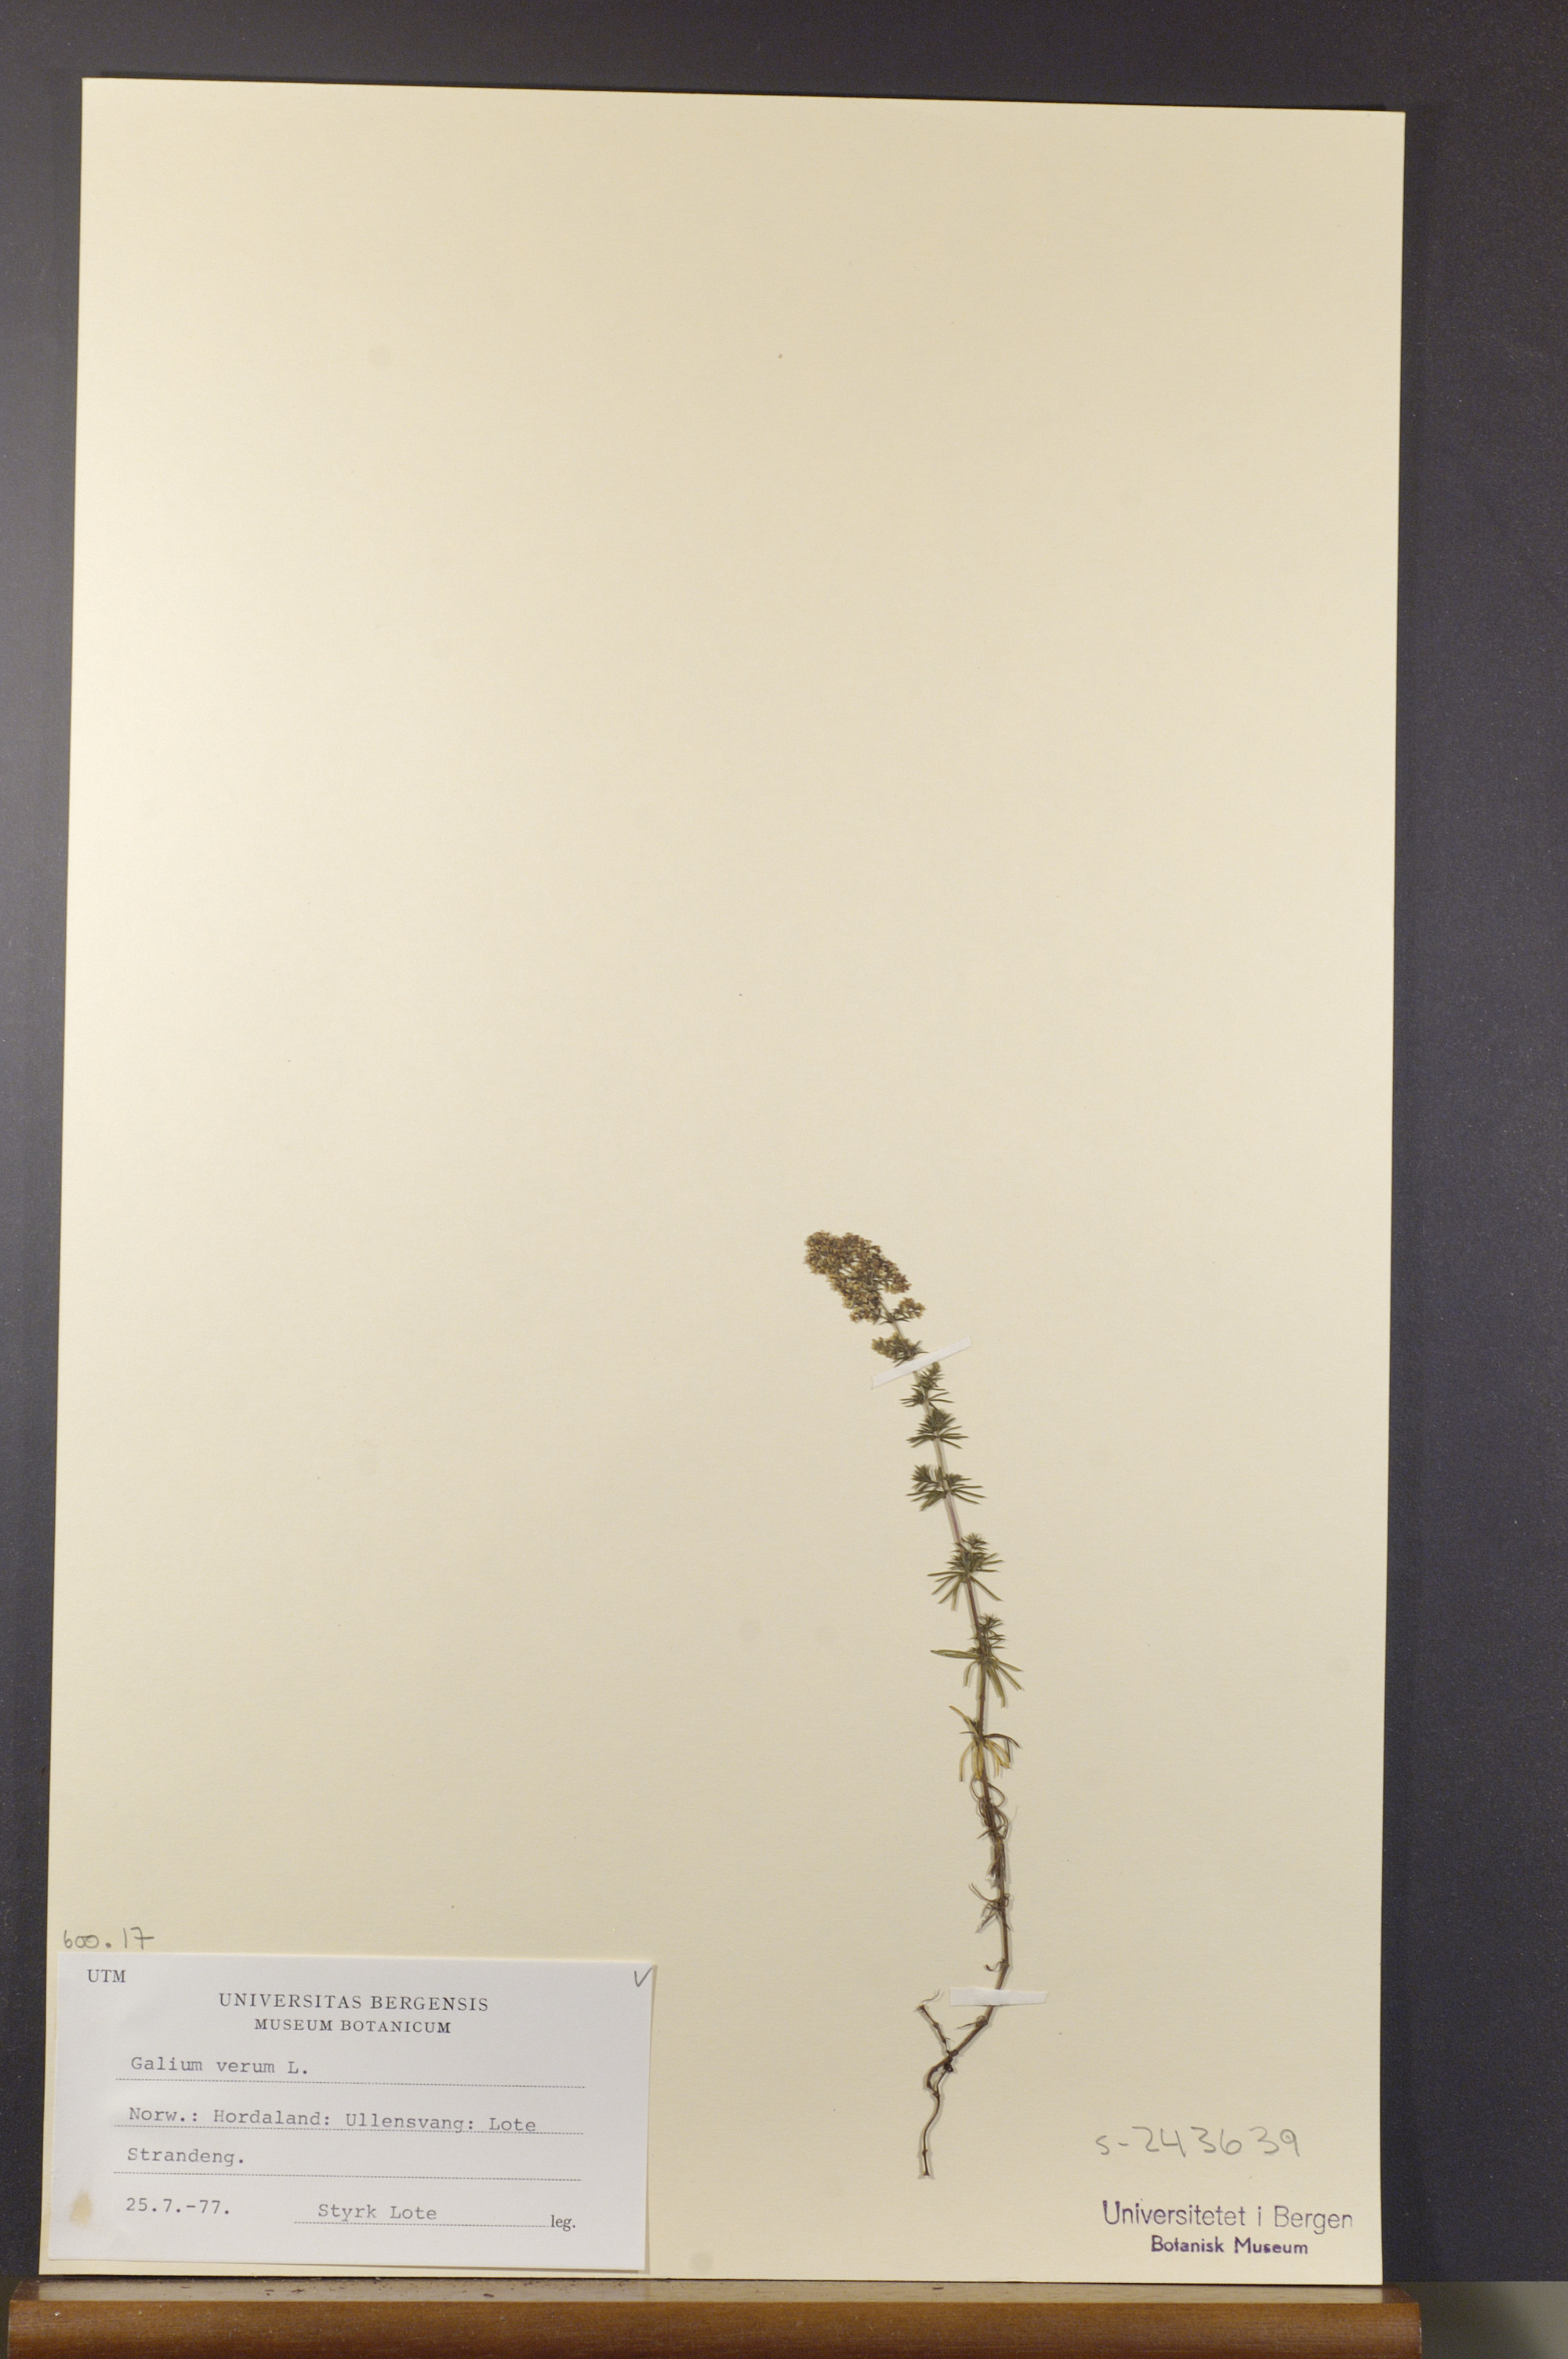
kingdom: Plantae
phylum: Tracheophyta
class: Magnoliopsida
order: Gentianales
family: Rubiaceae
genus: Galium
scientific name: Galium verum
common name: Lady's bedstraw
